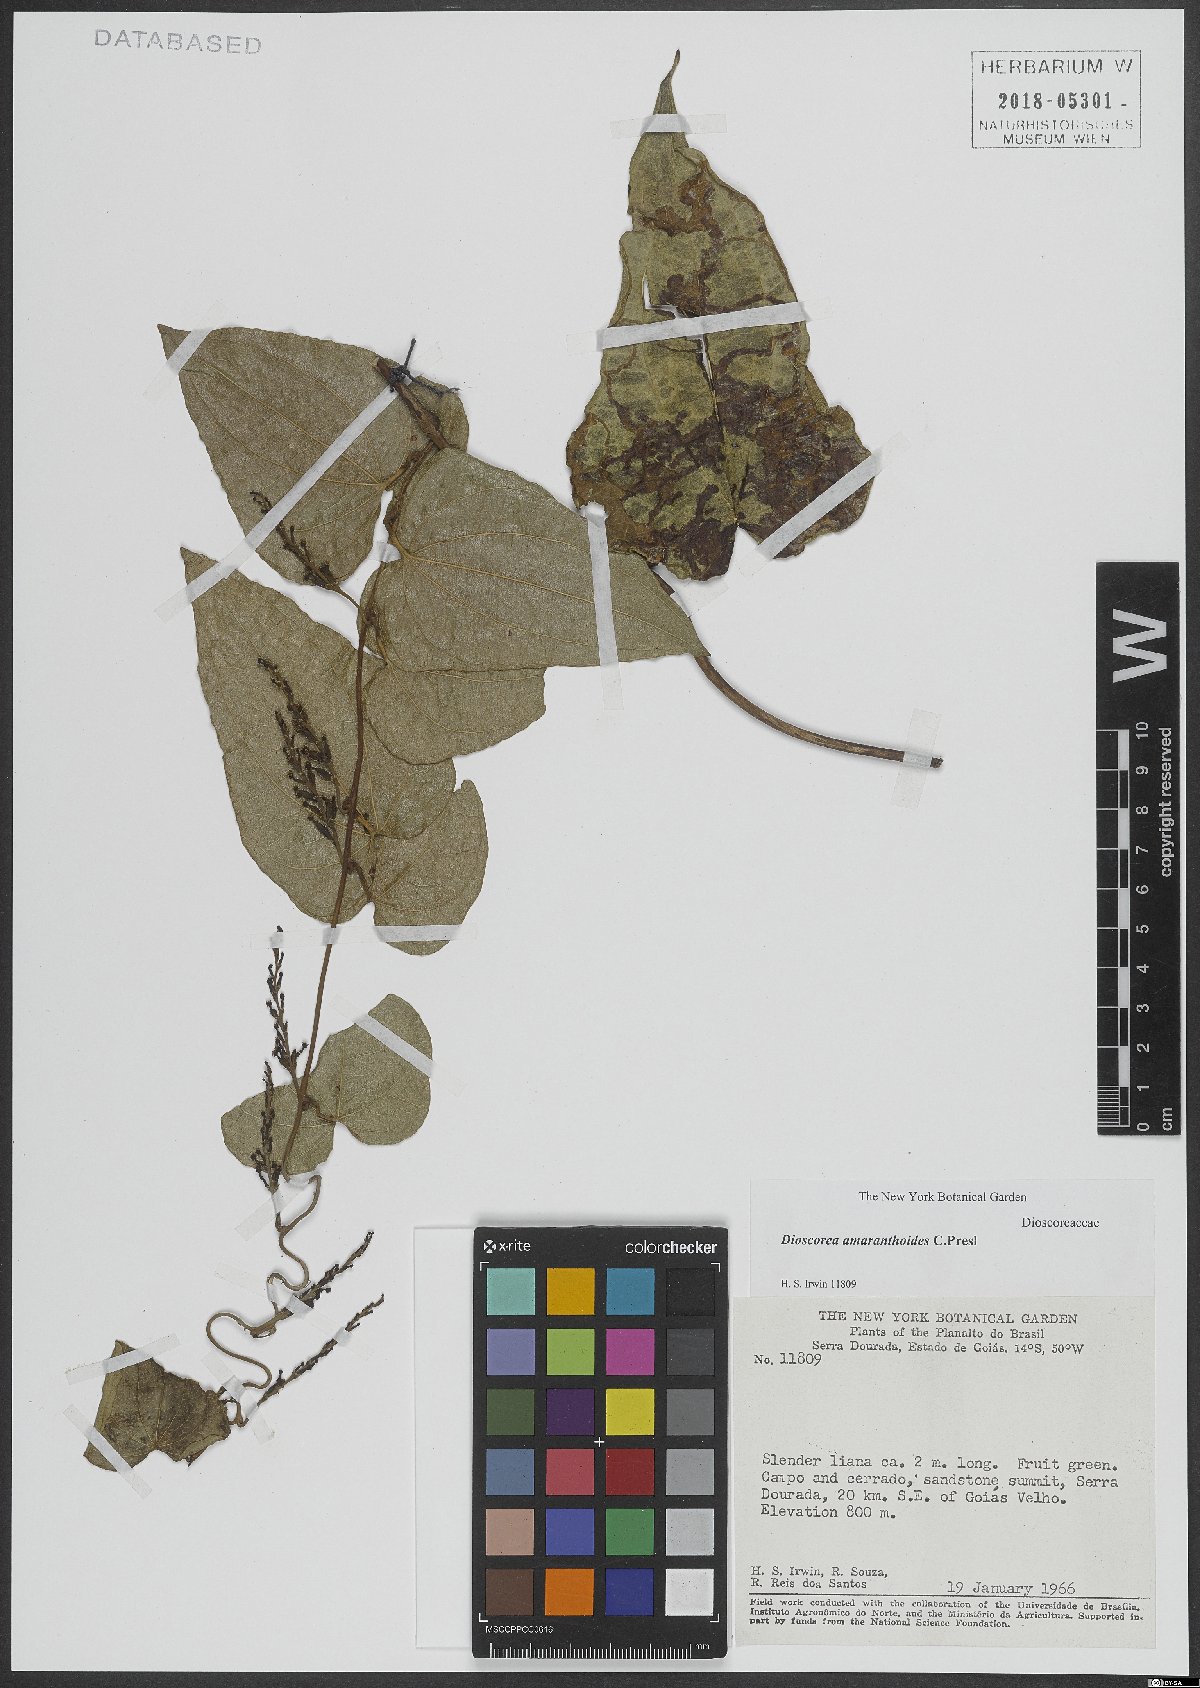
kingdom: Plantae
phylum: Tracheophyta
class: Liliopsida
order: Dioscoreales
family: Dioscoreaceae
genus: Dioscorea
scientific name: Dioscorea amaranthoides
